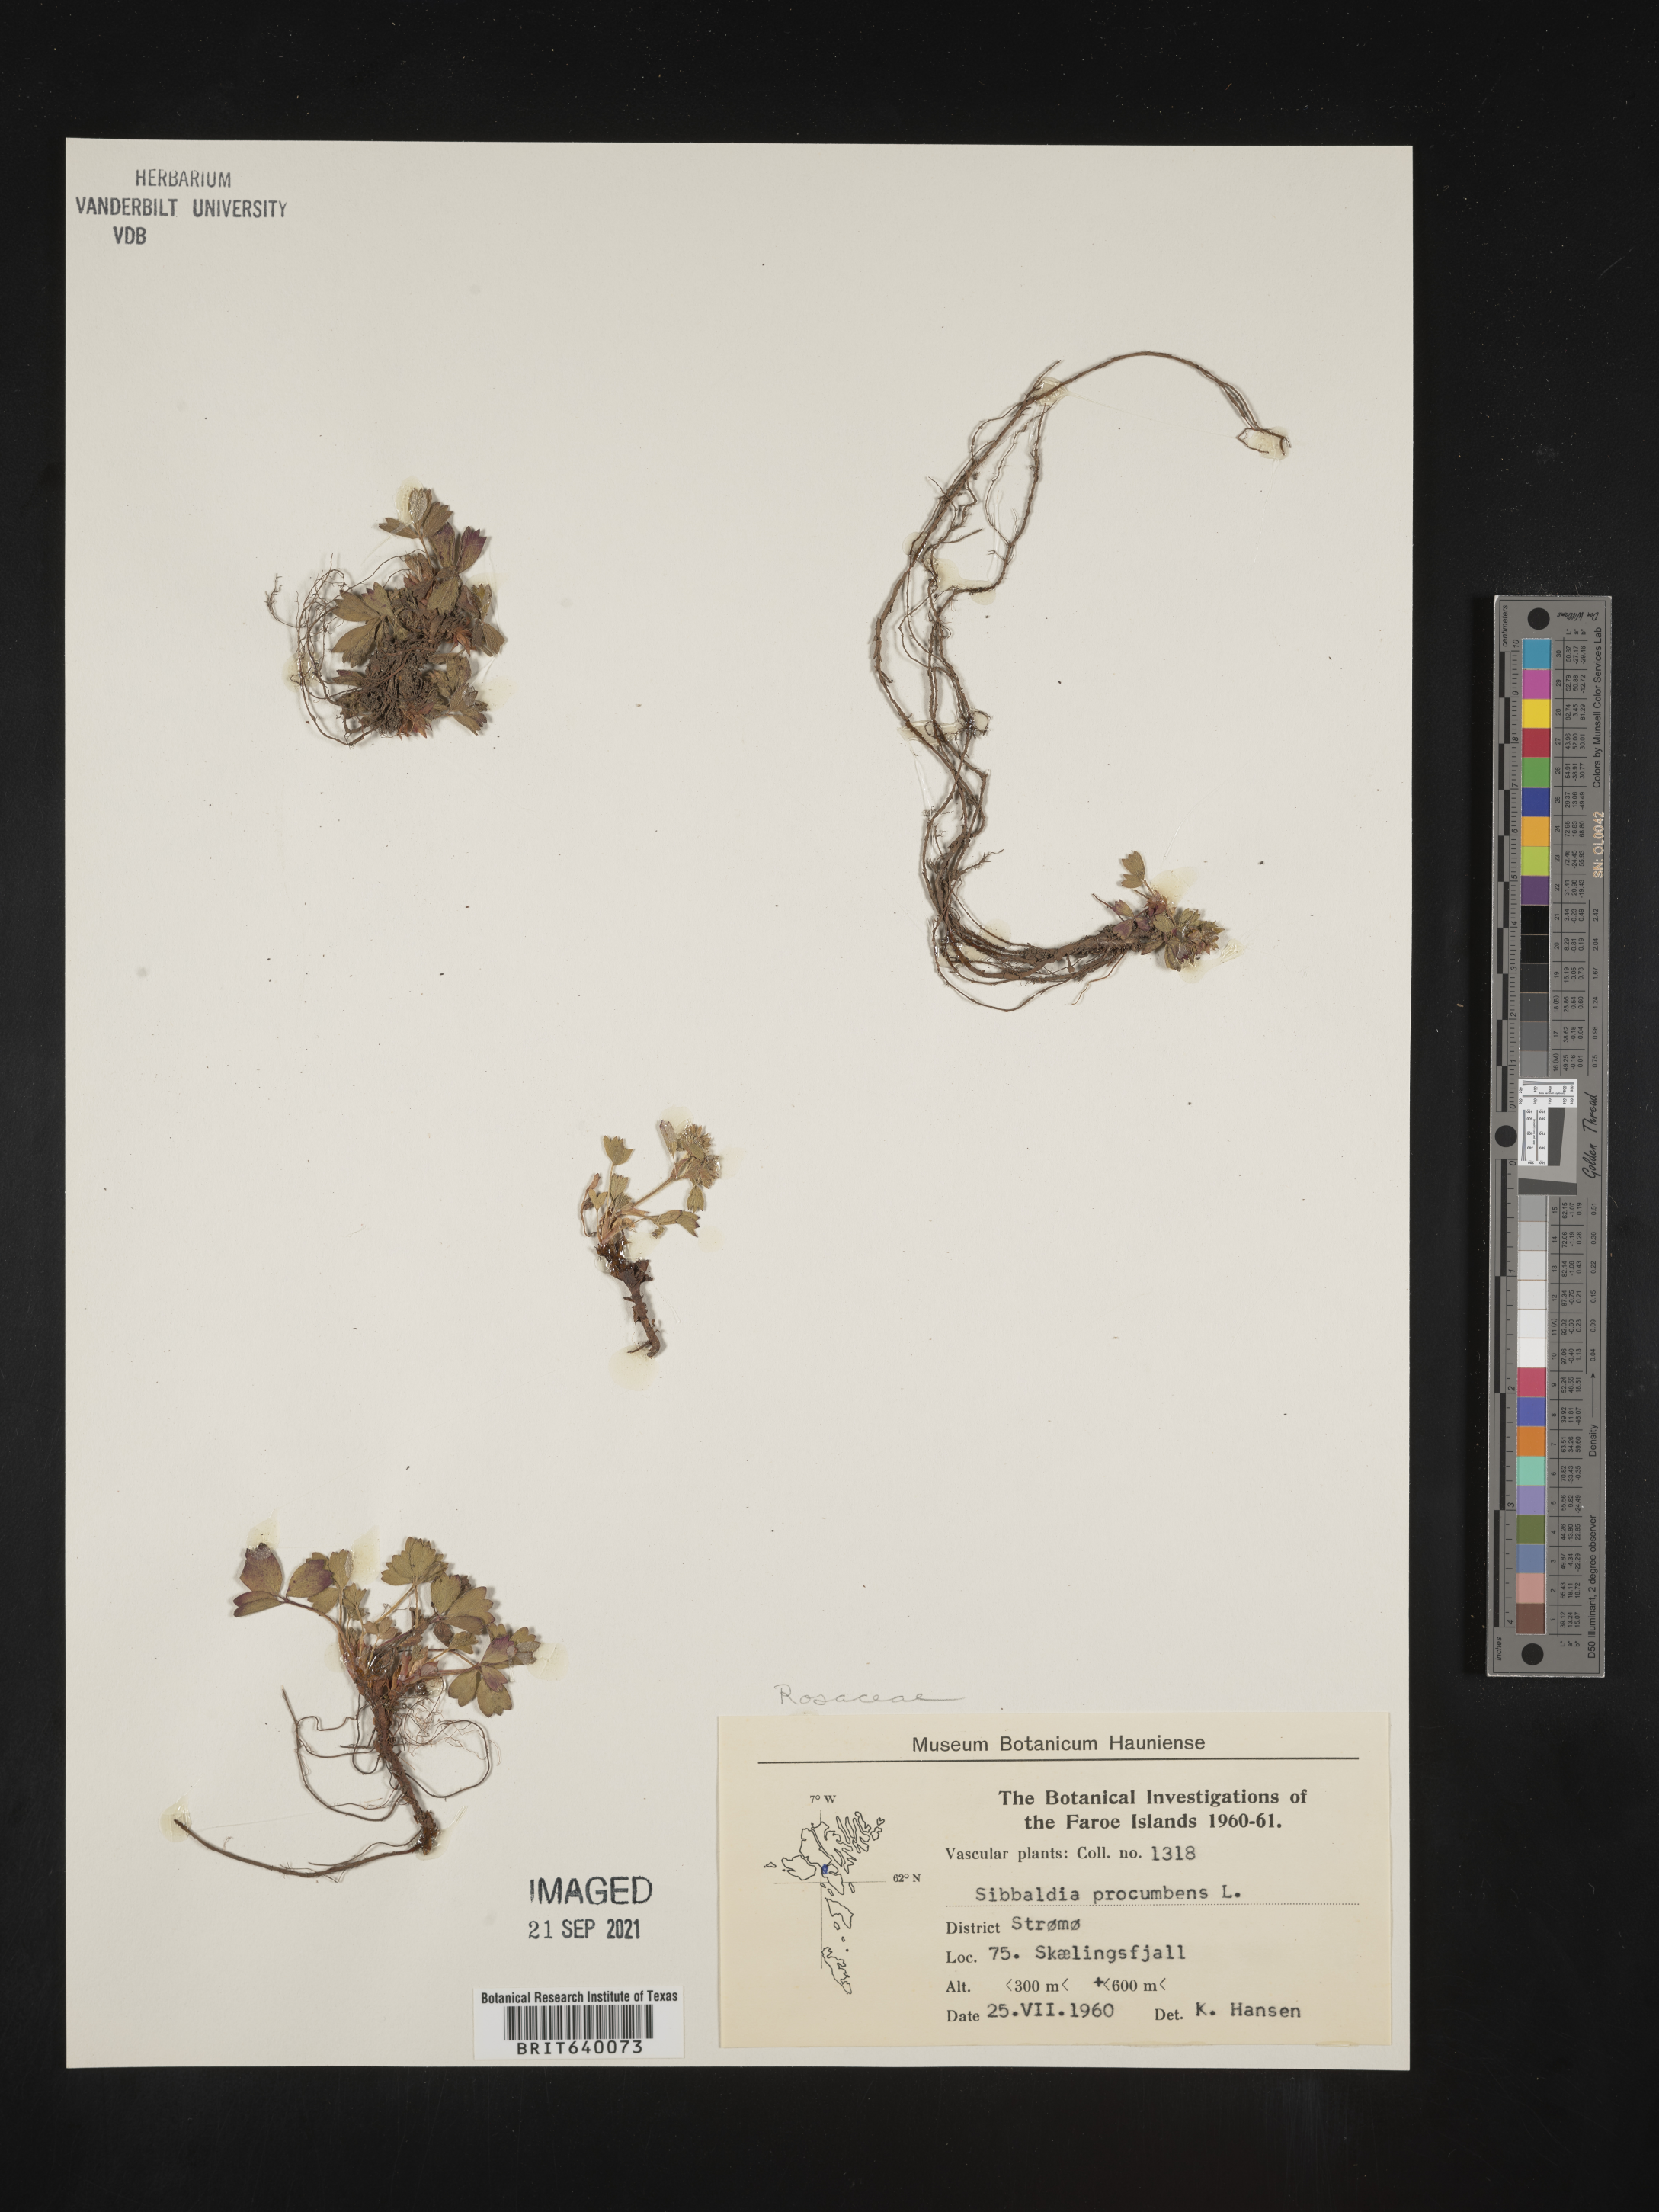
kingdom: Plantae
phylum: Tracheophyta
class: Magnoliopsida
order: Rosales
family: Rosaceae
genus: Sibbaldia
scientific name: Sibbaldia
